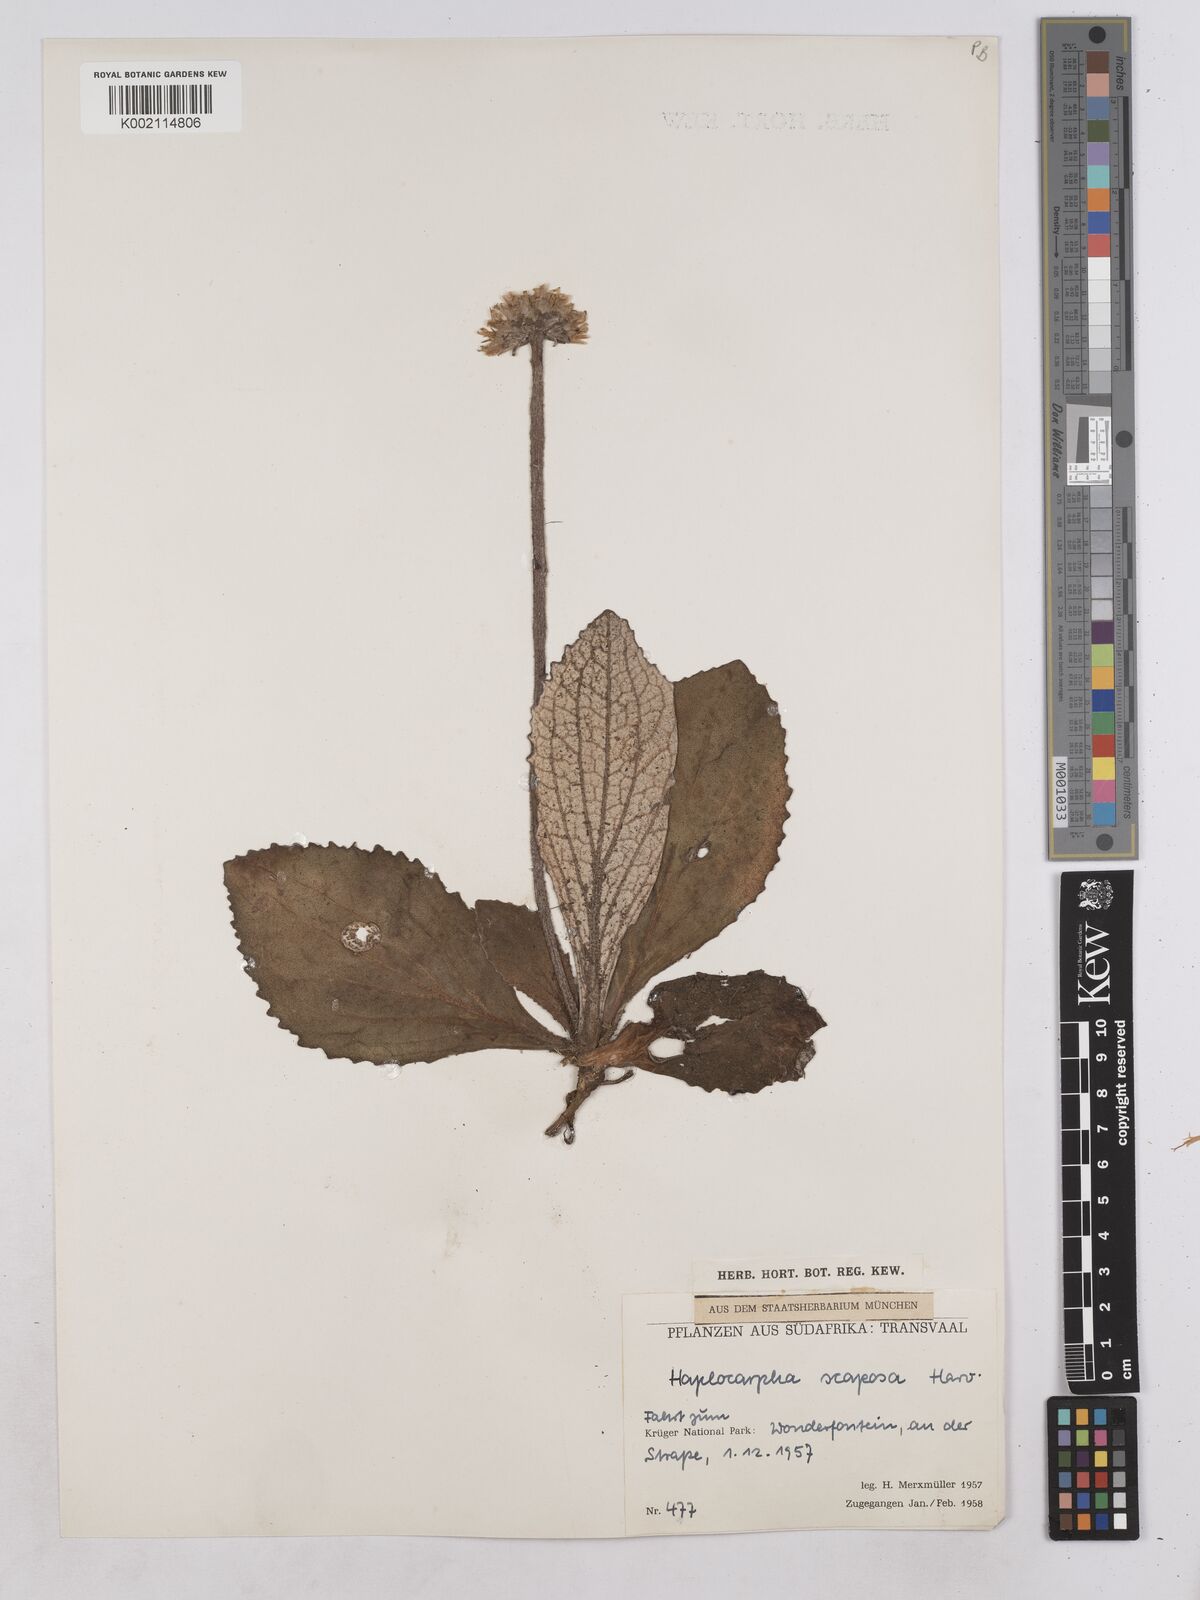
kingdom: Plantae
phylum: Tracheophyta
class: Magnoliopsida
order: Asterales
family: Asteraceae
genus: Haplocarpha
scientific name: Haplocarpha scaposa
